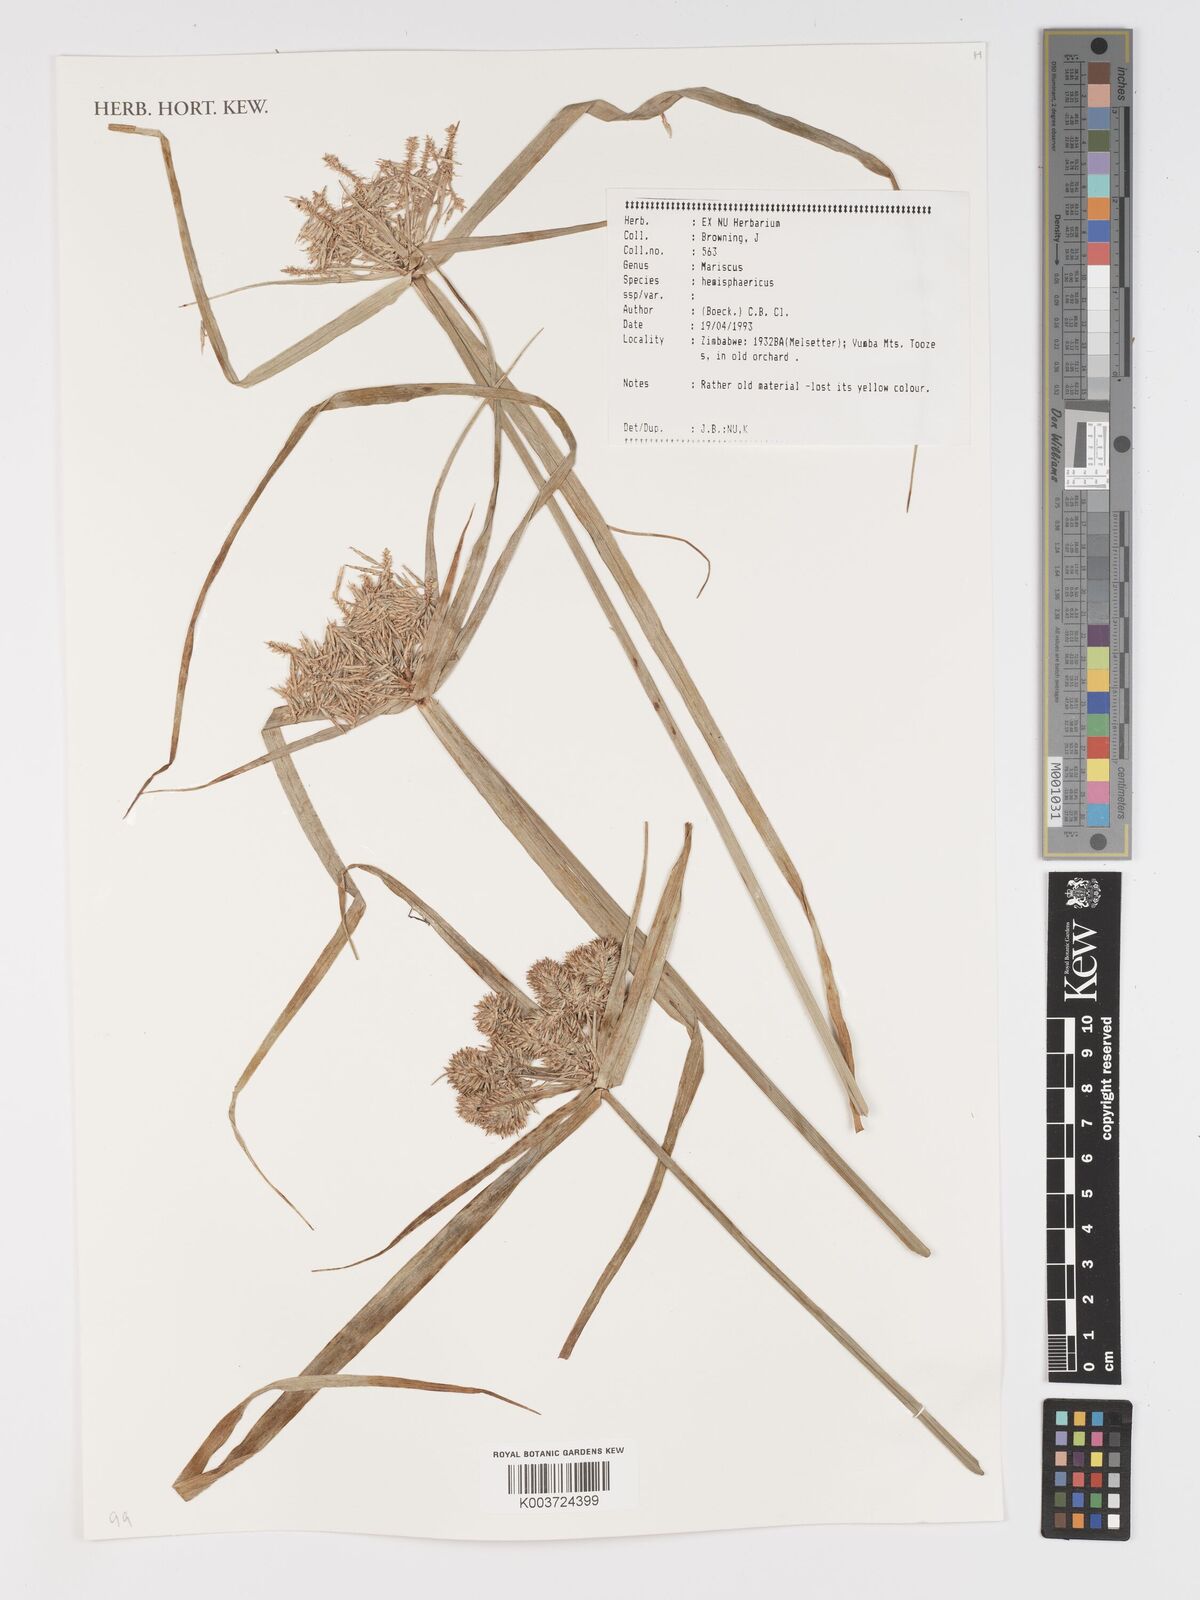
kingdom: Plantae
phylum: Tracheophyta
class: Liliopsida
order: Poales
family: Cyperaceae
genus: Cyperus
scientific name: Cyperus hemisphaericus
